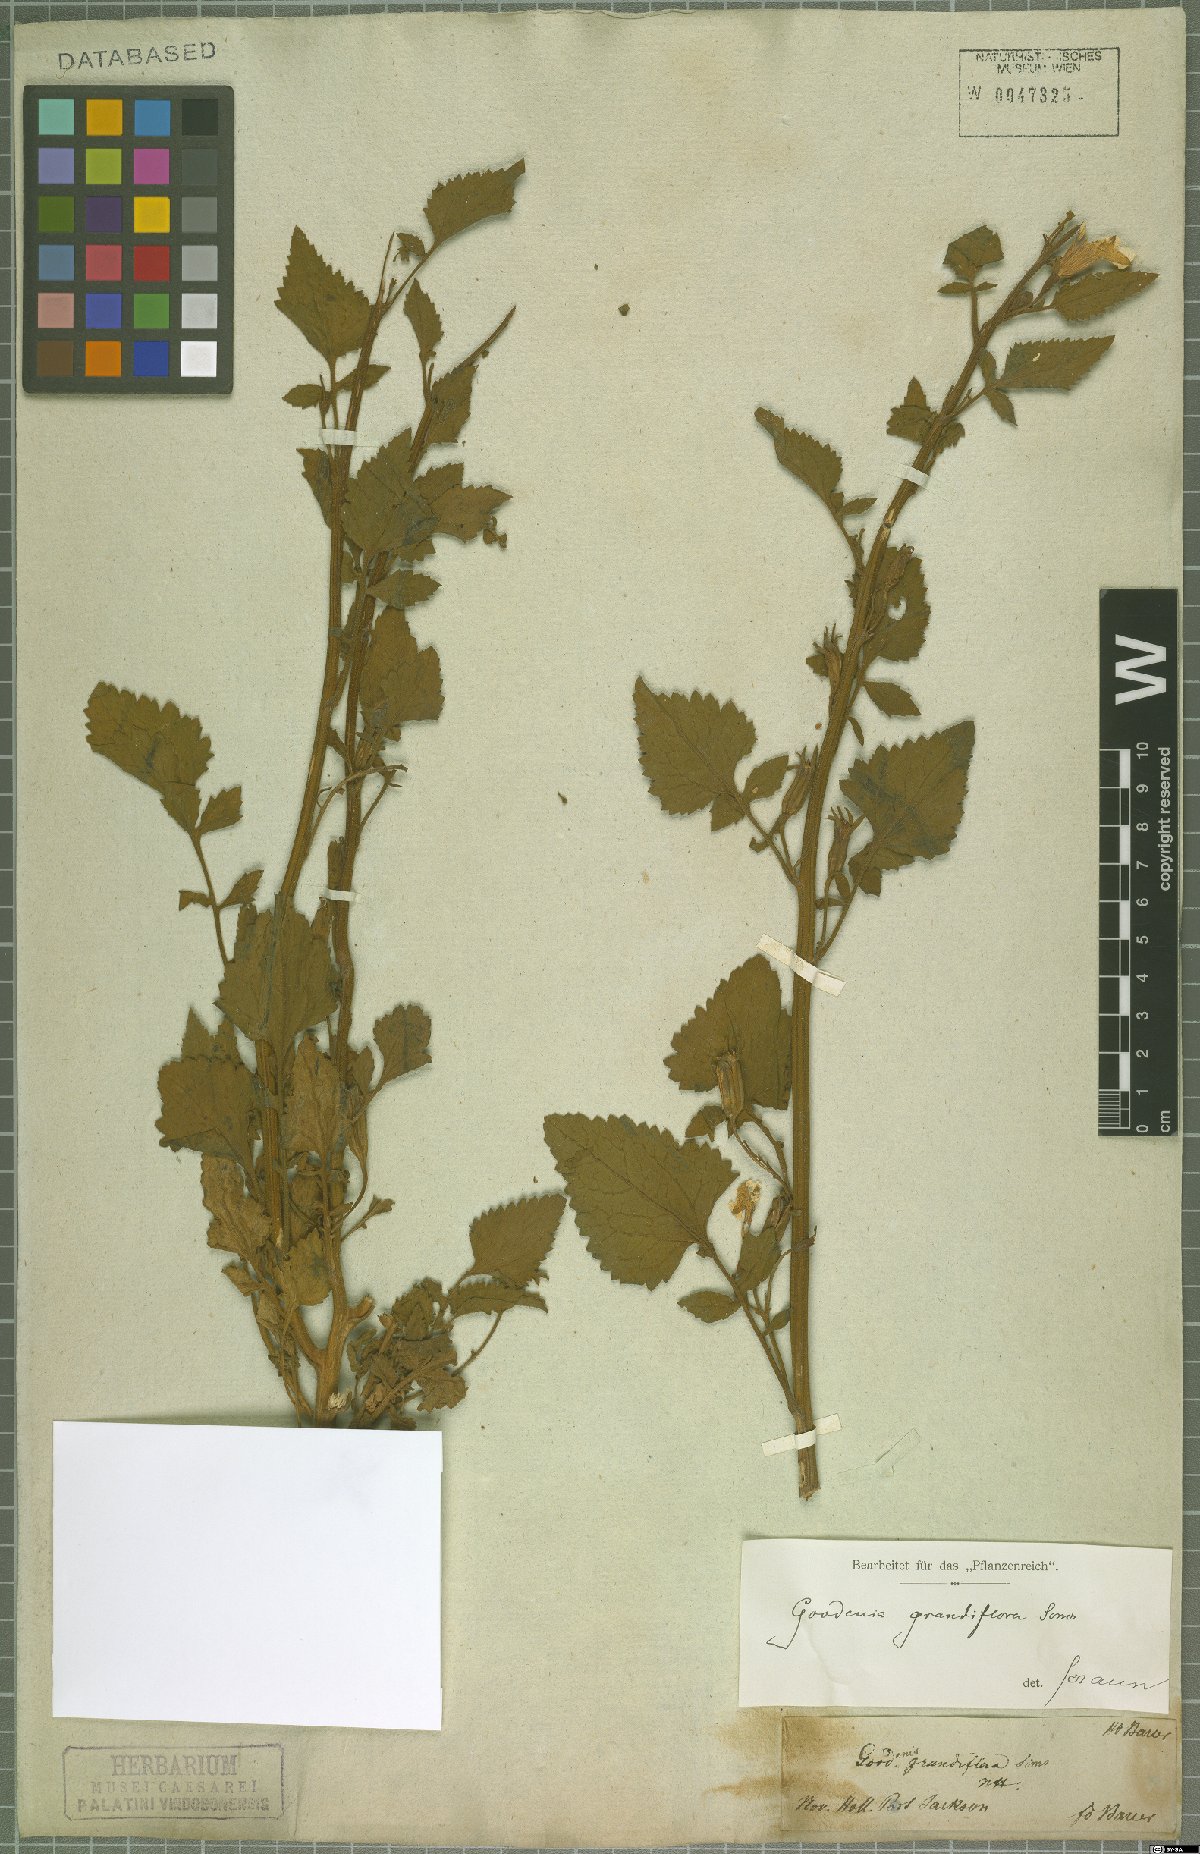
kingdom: Plantae
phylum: Tracheophyta
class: Magnoliopsida
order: Asterales
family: Goodeniaceae
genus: Goodenia
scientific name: Goodenia grandiflora
